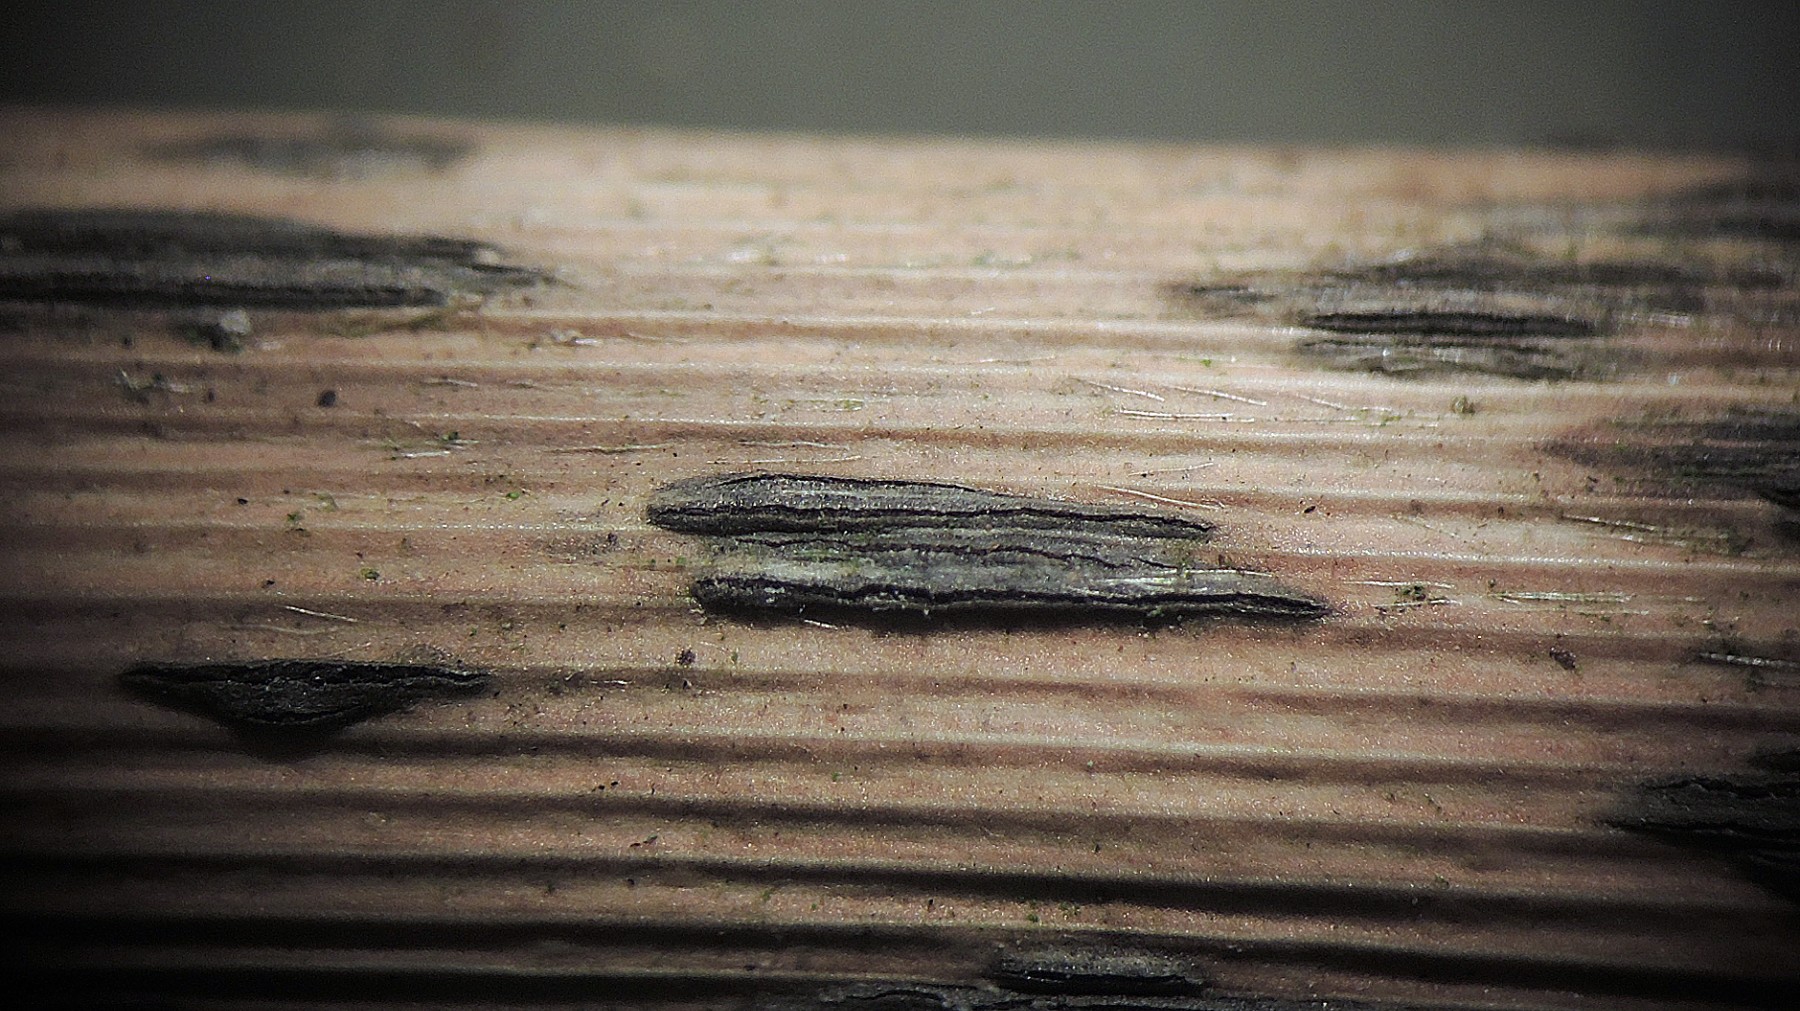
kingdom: Fungi
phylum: Ascomycota
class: Dothideomycetes
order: Dothideales
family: Dothideaceae
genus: Scirrhia
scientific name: Scirrhia rimosa
